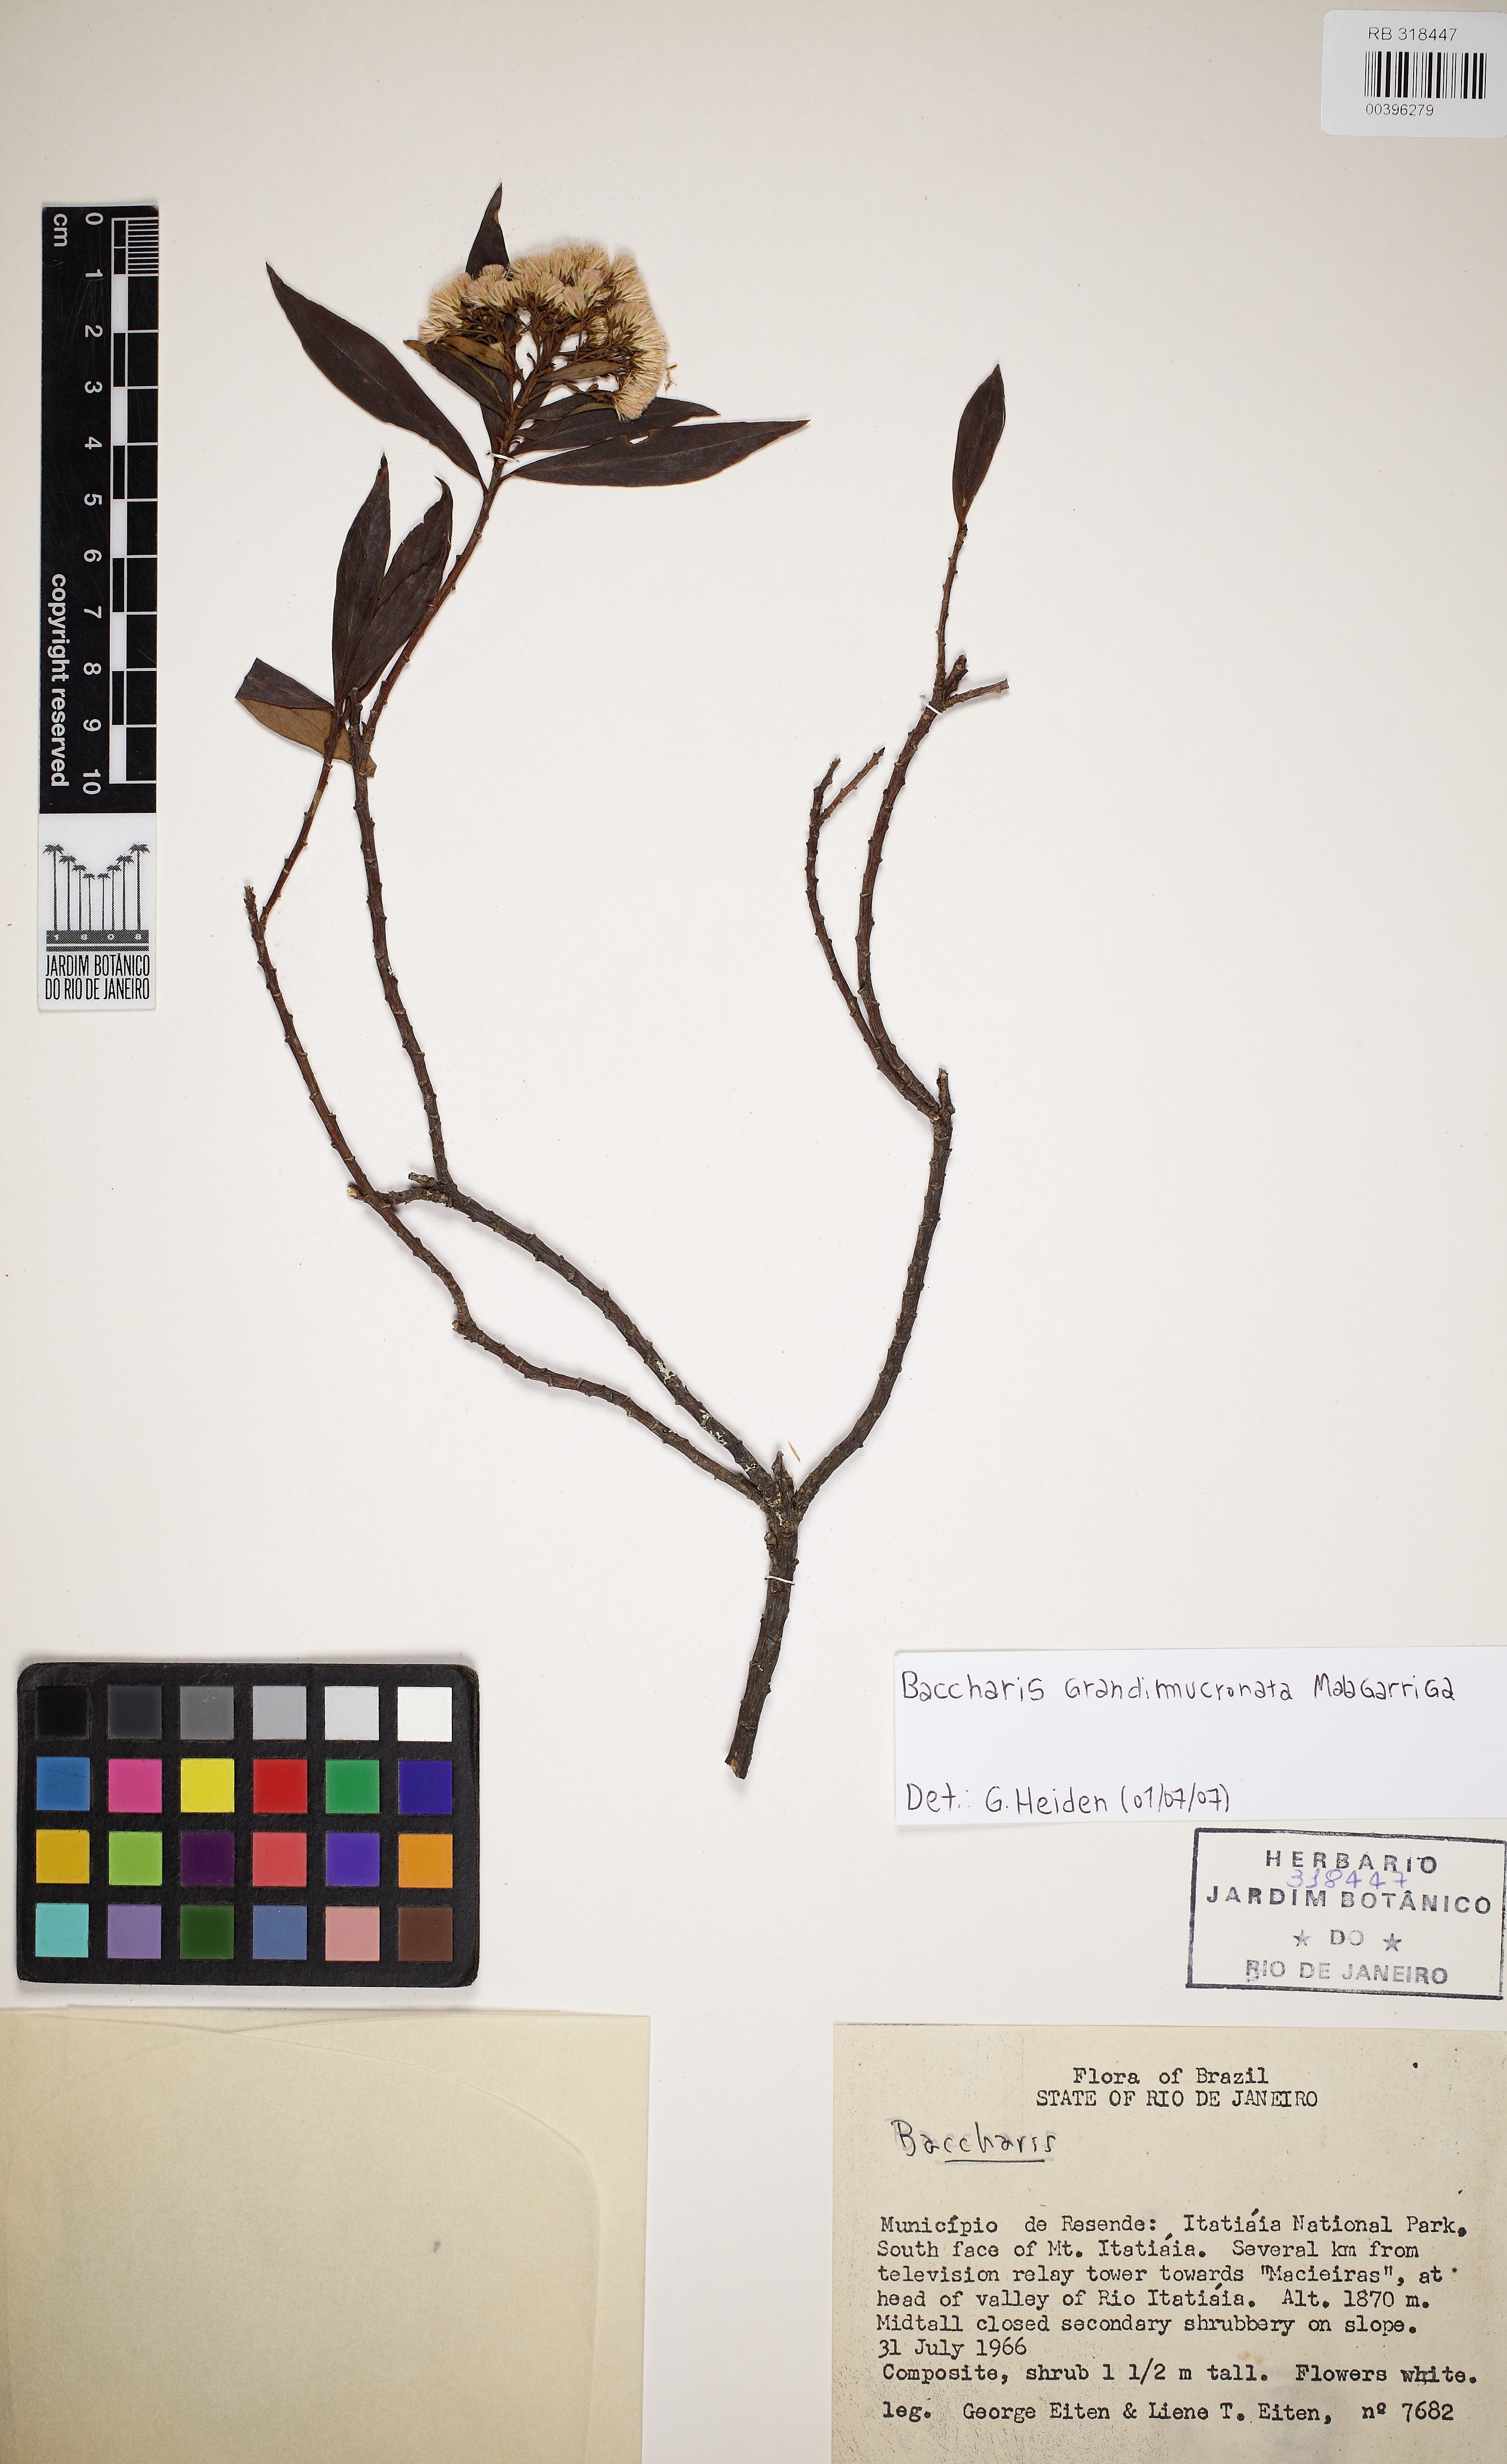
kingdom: Plantae
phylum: Tracheophyta
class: Magnoliopsida
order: Asterales
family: Asteraceae
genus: Baccharis
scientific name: Baccharis grandimucronata
